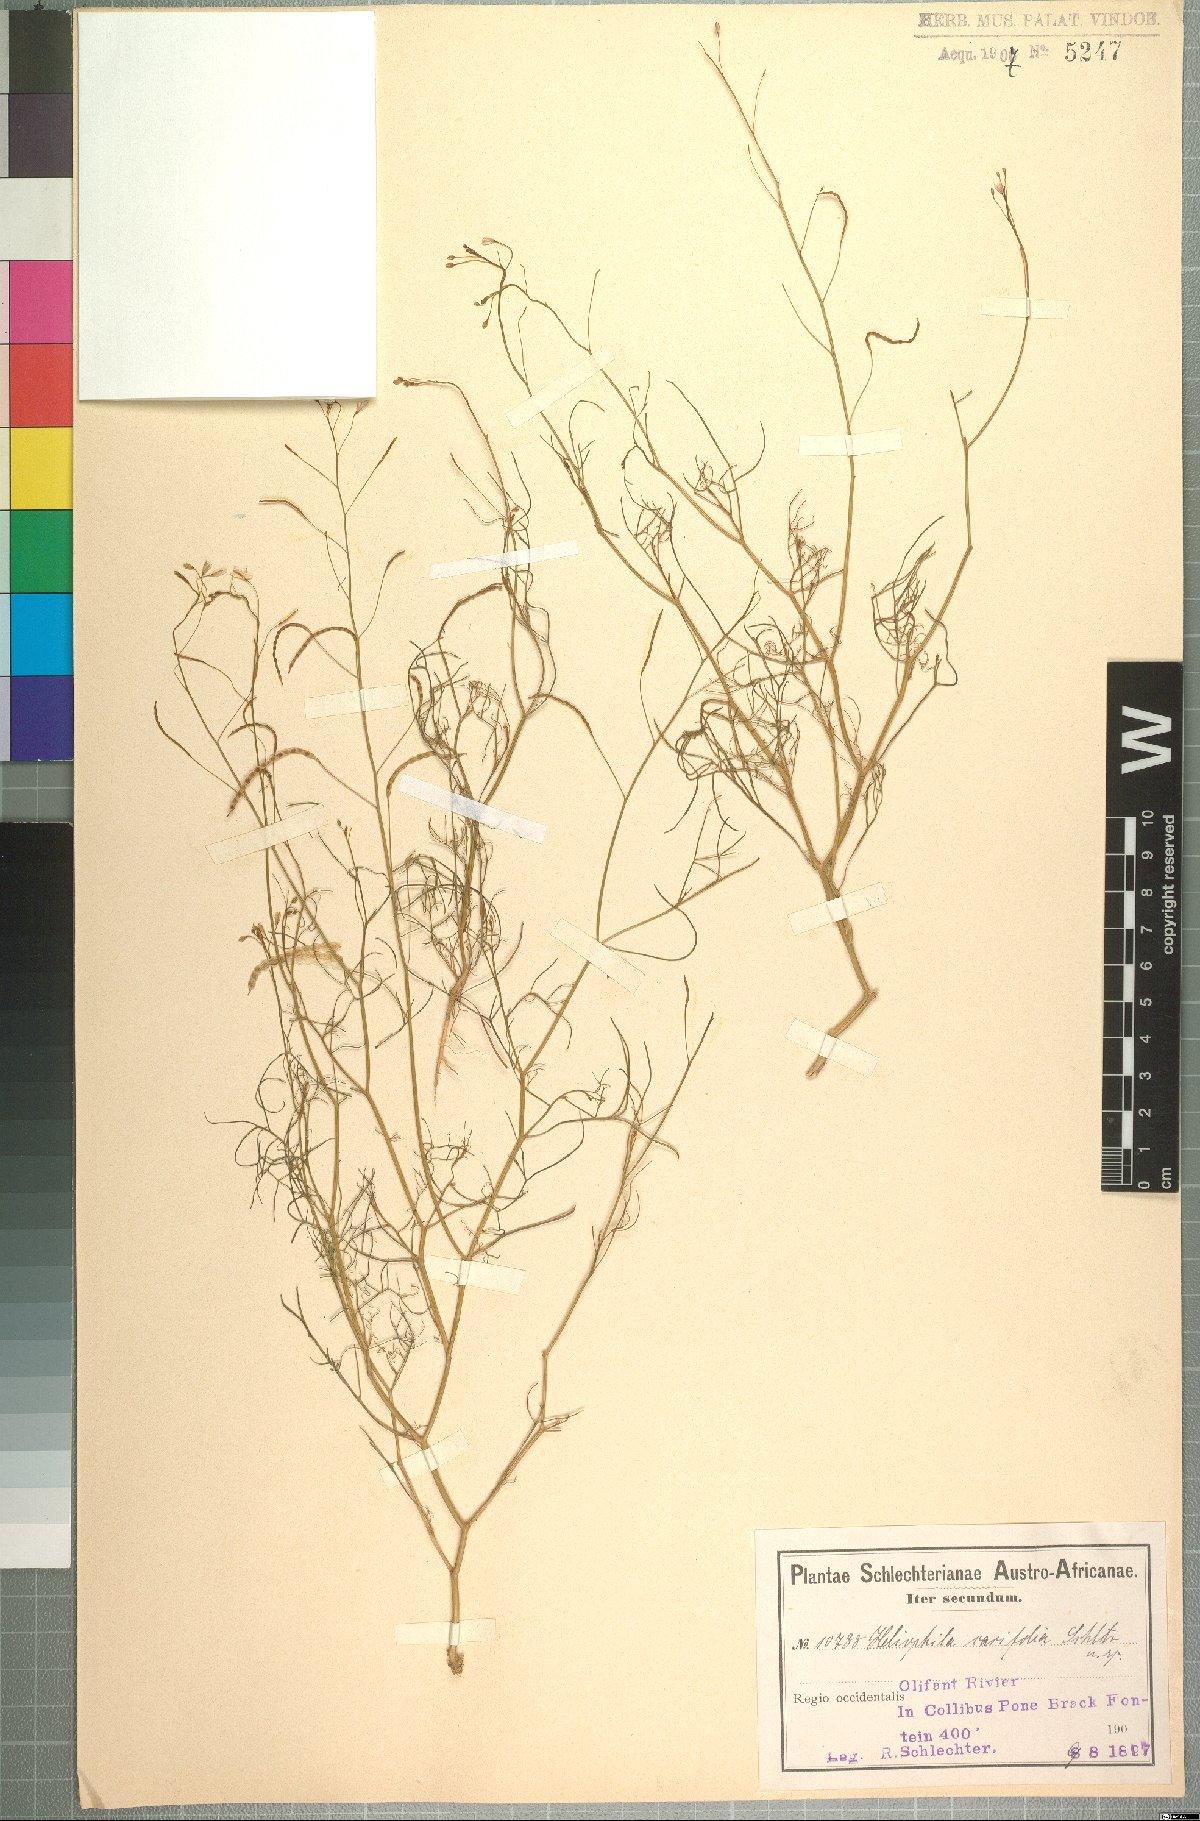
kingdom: Plantae
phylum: Tracheophyta
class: Magnoliopsida
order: Brassicales
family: Brassicaceae
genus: Heliophila
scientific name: Heliophila variabilis
